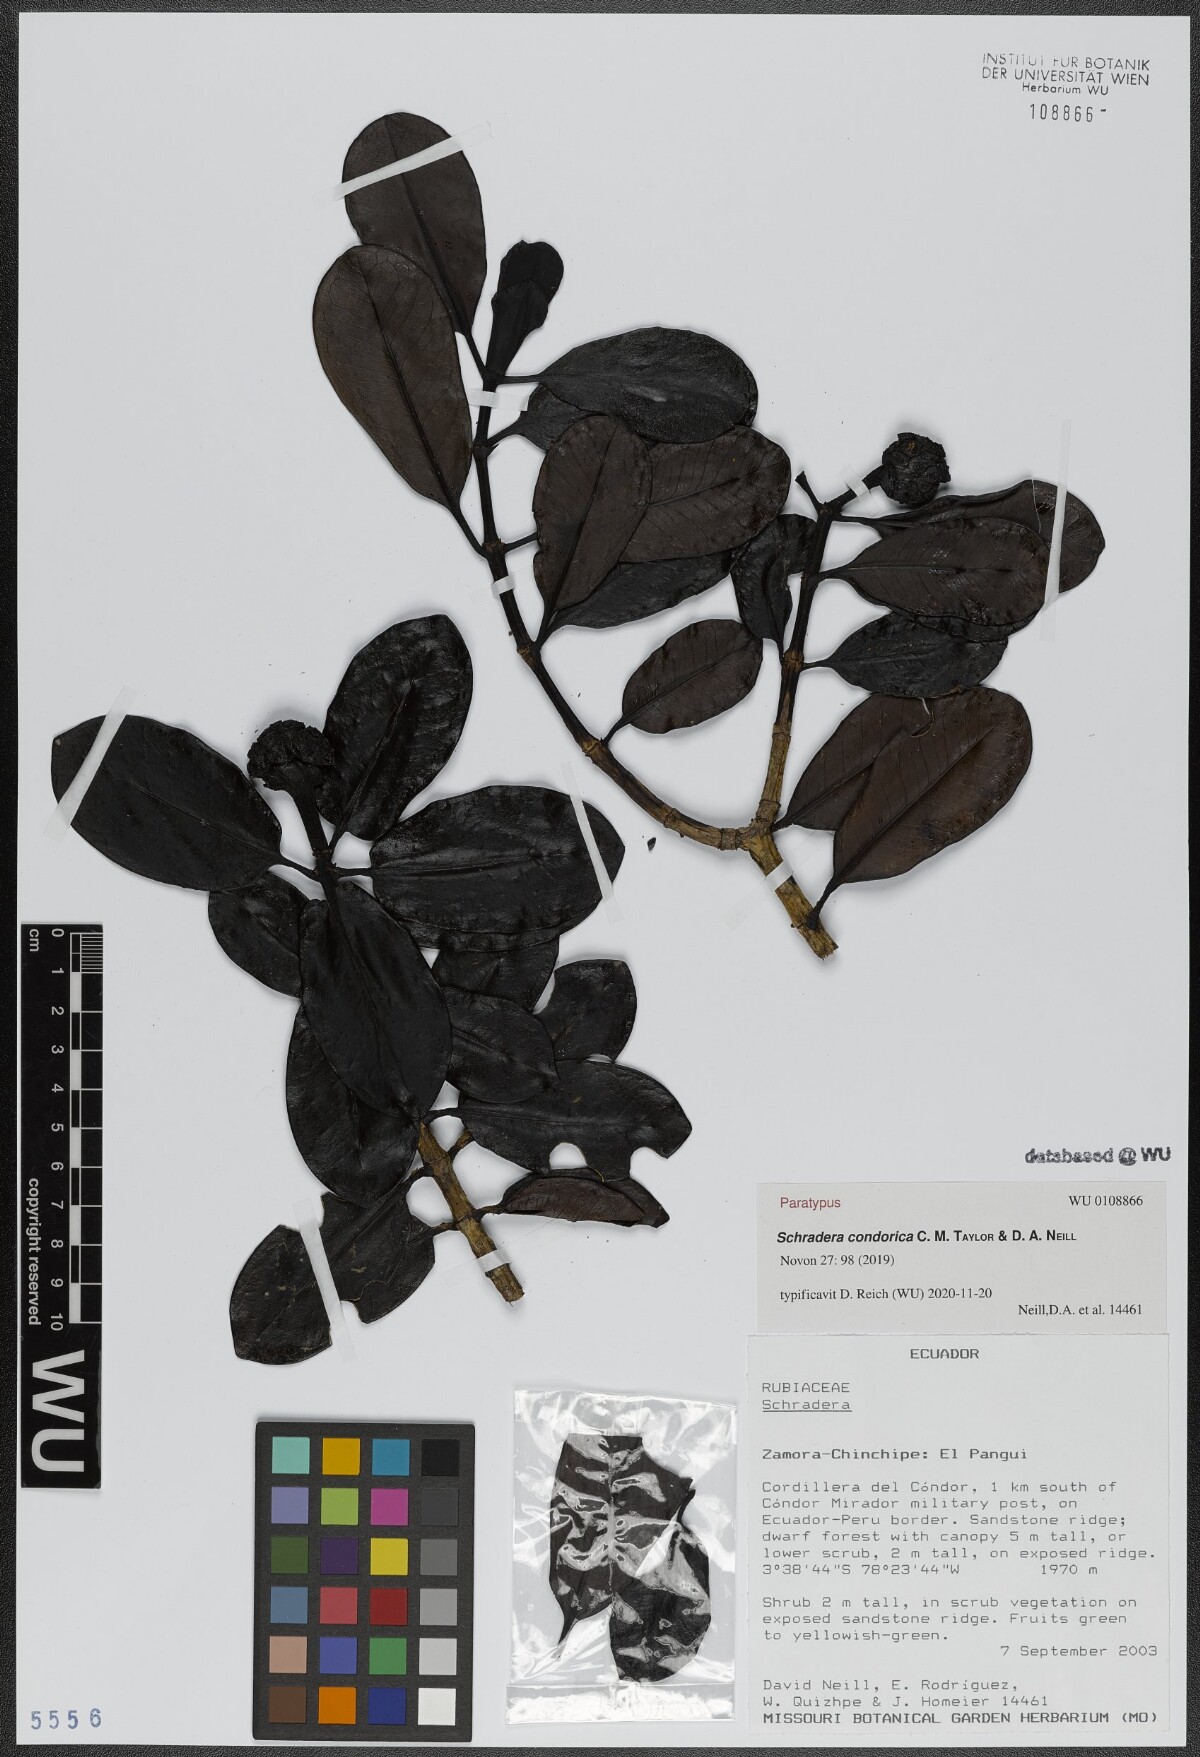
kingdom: Plantae
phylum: Tracheophyta
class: Magnoliopsida
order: Gentianales
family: Rubiaceae
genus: Schradera
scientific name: Schradera condorica
